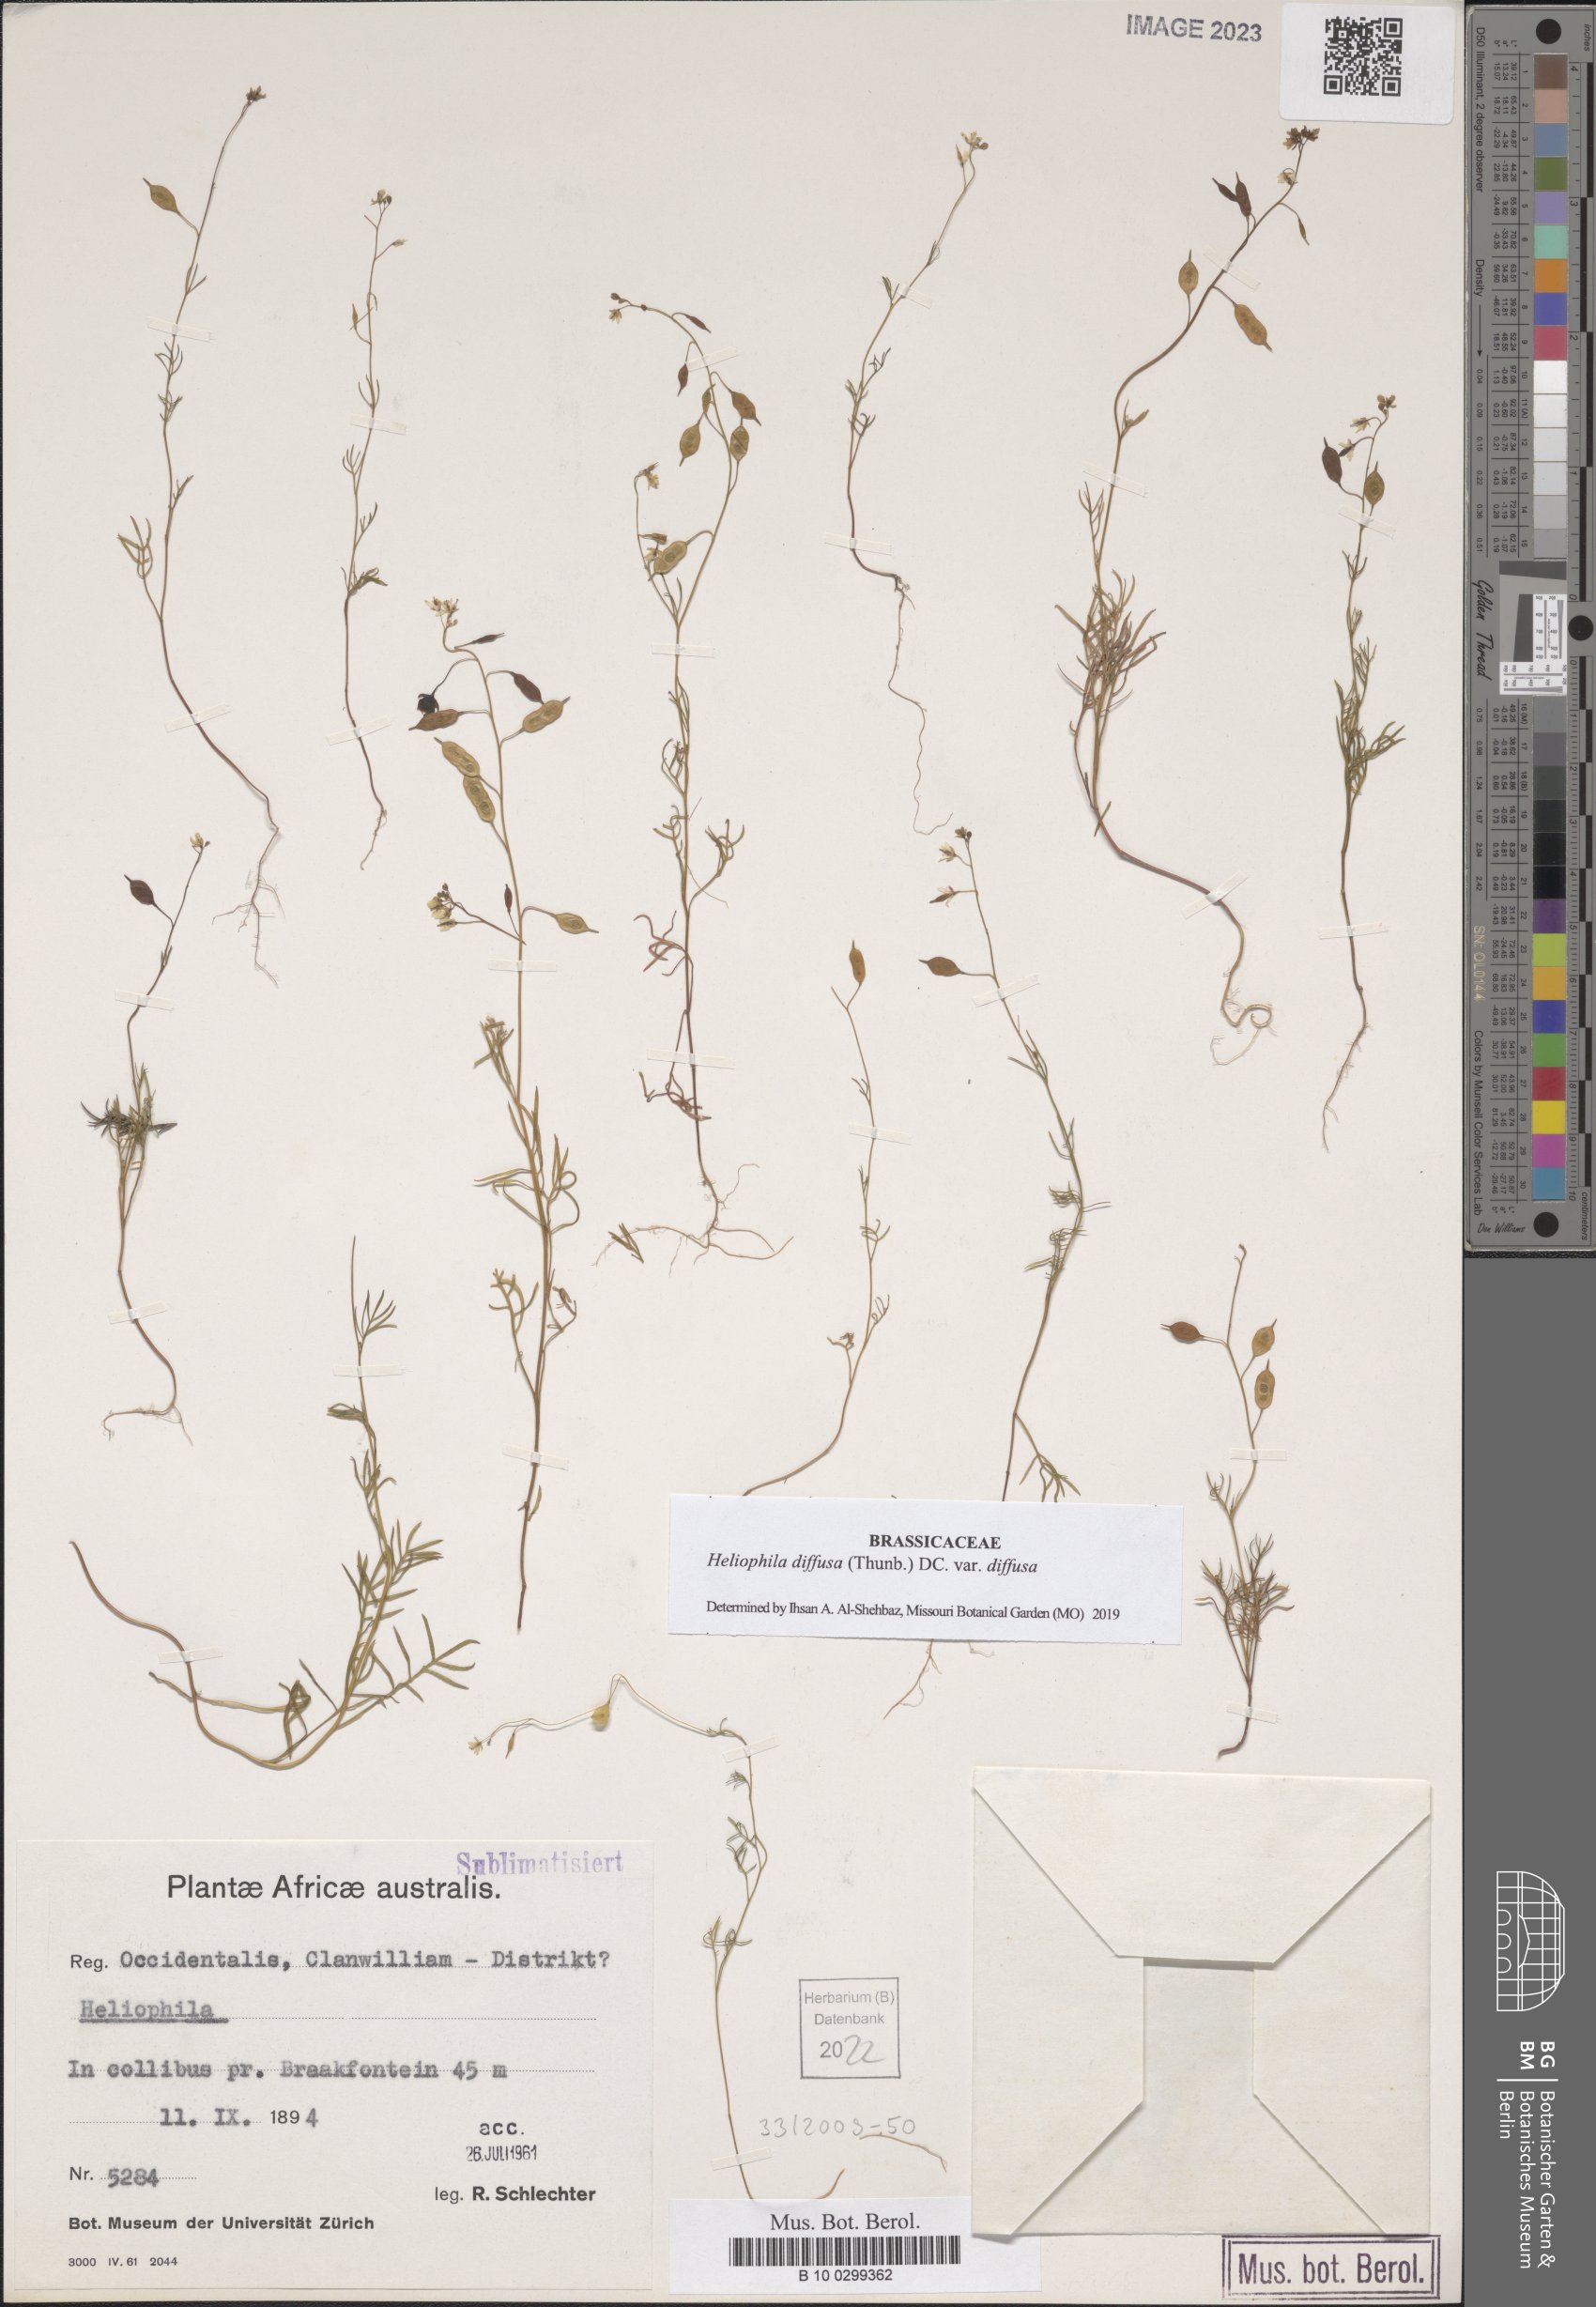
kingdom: Plantae
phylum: Tracheophyta
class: Magnoliopsida
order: Brassicales
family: Brassicaceae
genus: Heliophila
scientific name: Heliophila diffusa
